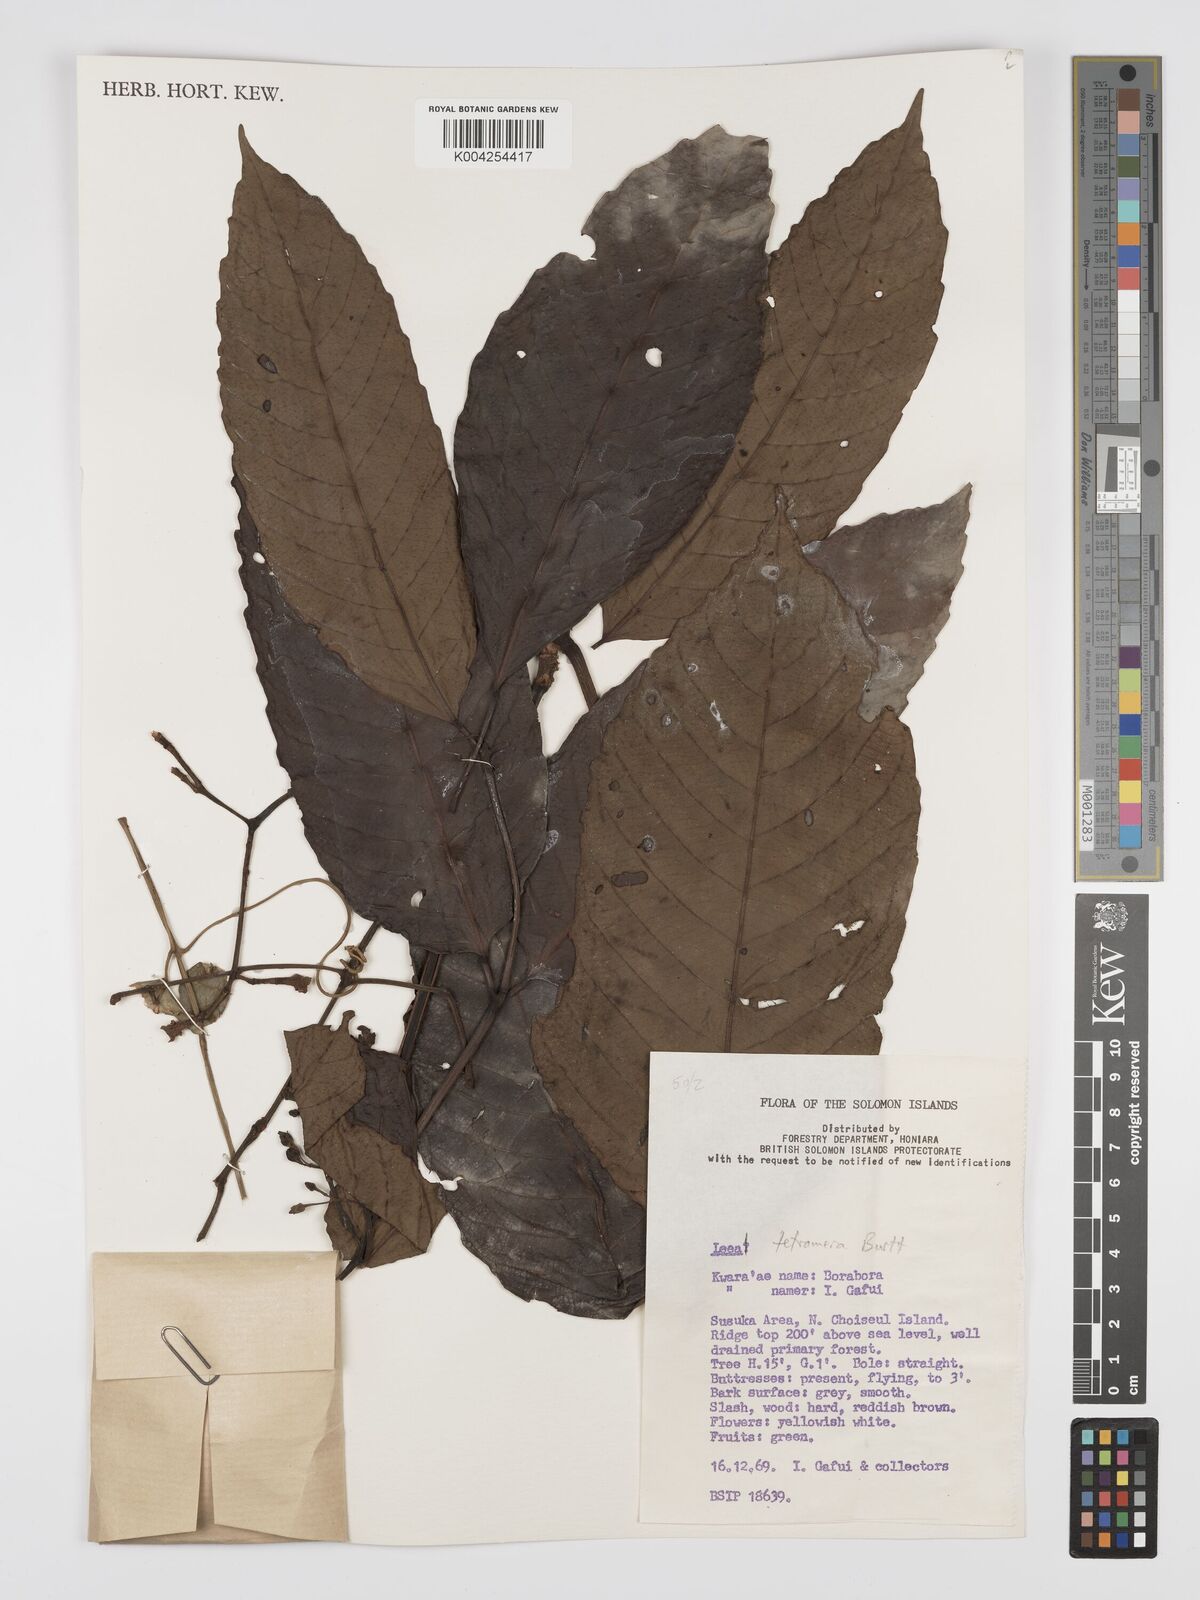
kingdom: Plantae
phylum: Tracheophyta
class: Magnoliopsida
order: Vitales
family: Vitaceae
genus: Leea
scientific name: Leea tetramera
